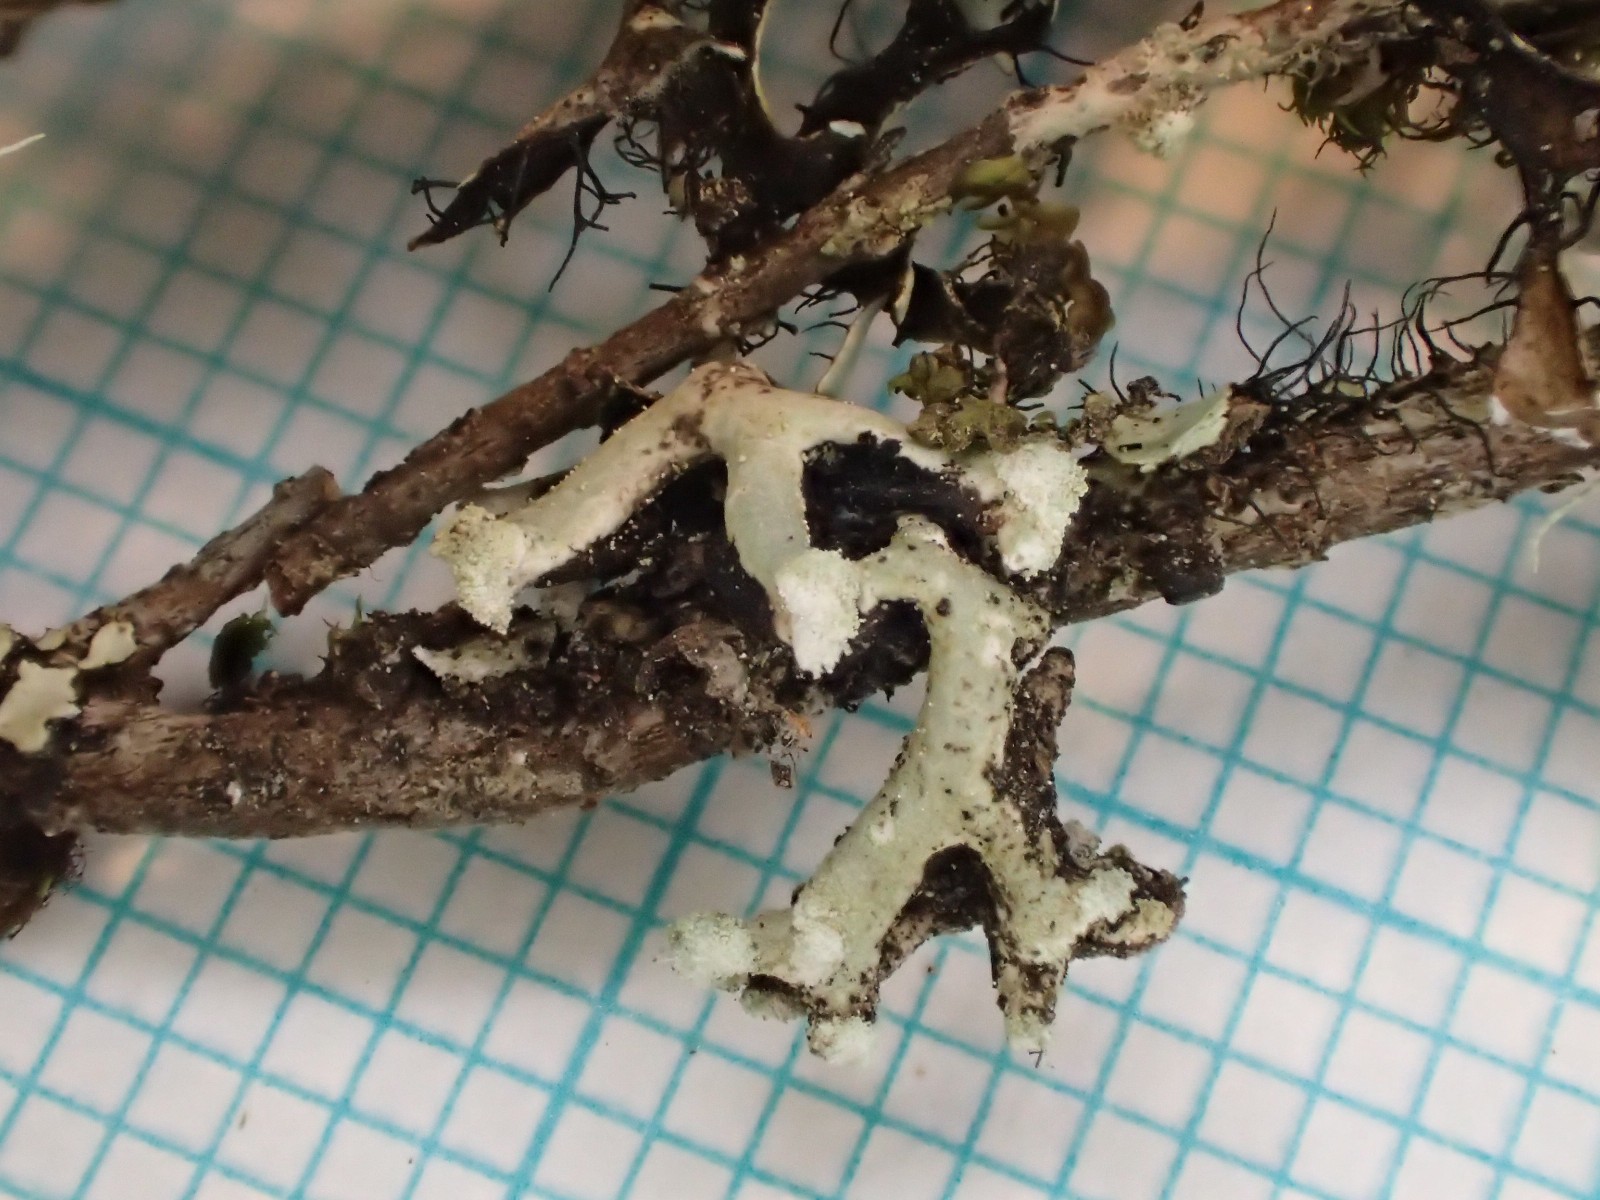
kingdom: Fungi
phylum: Ascomycota
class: Lecanoromycetes
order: Lecanorales
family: Parmeliaceae
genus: Hypogymnia
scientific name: Hypogymnia tubulosa
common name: finger-kvistlav
